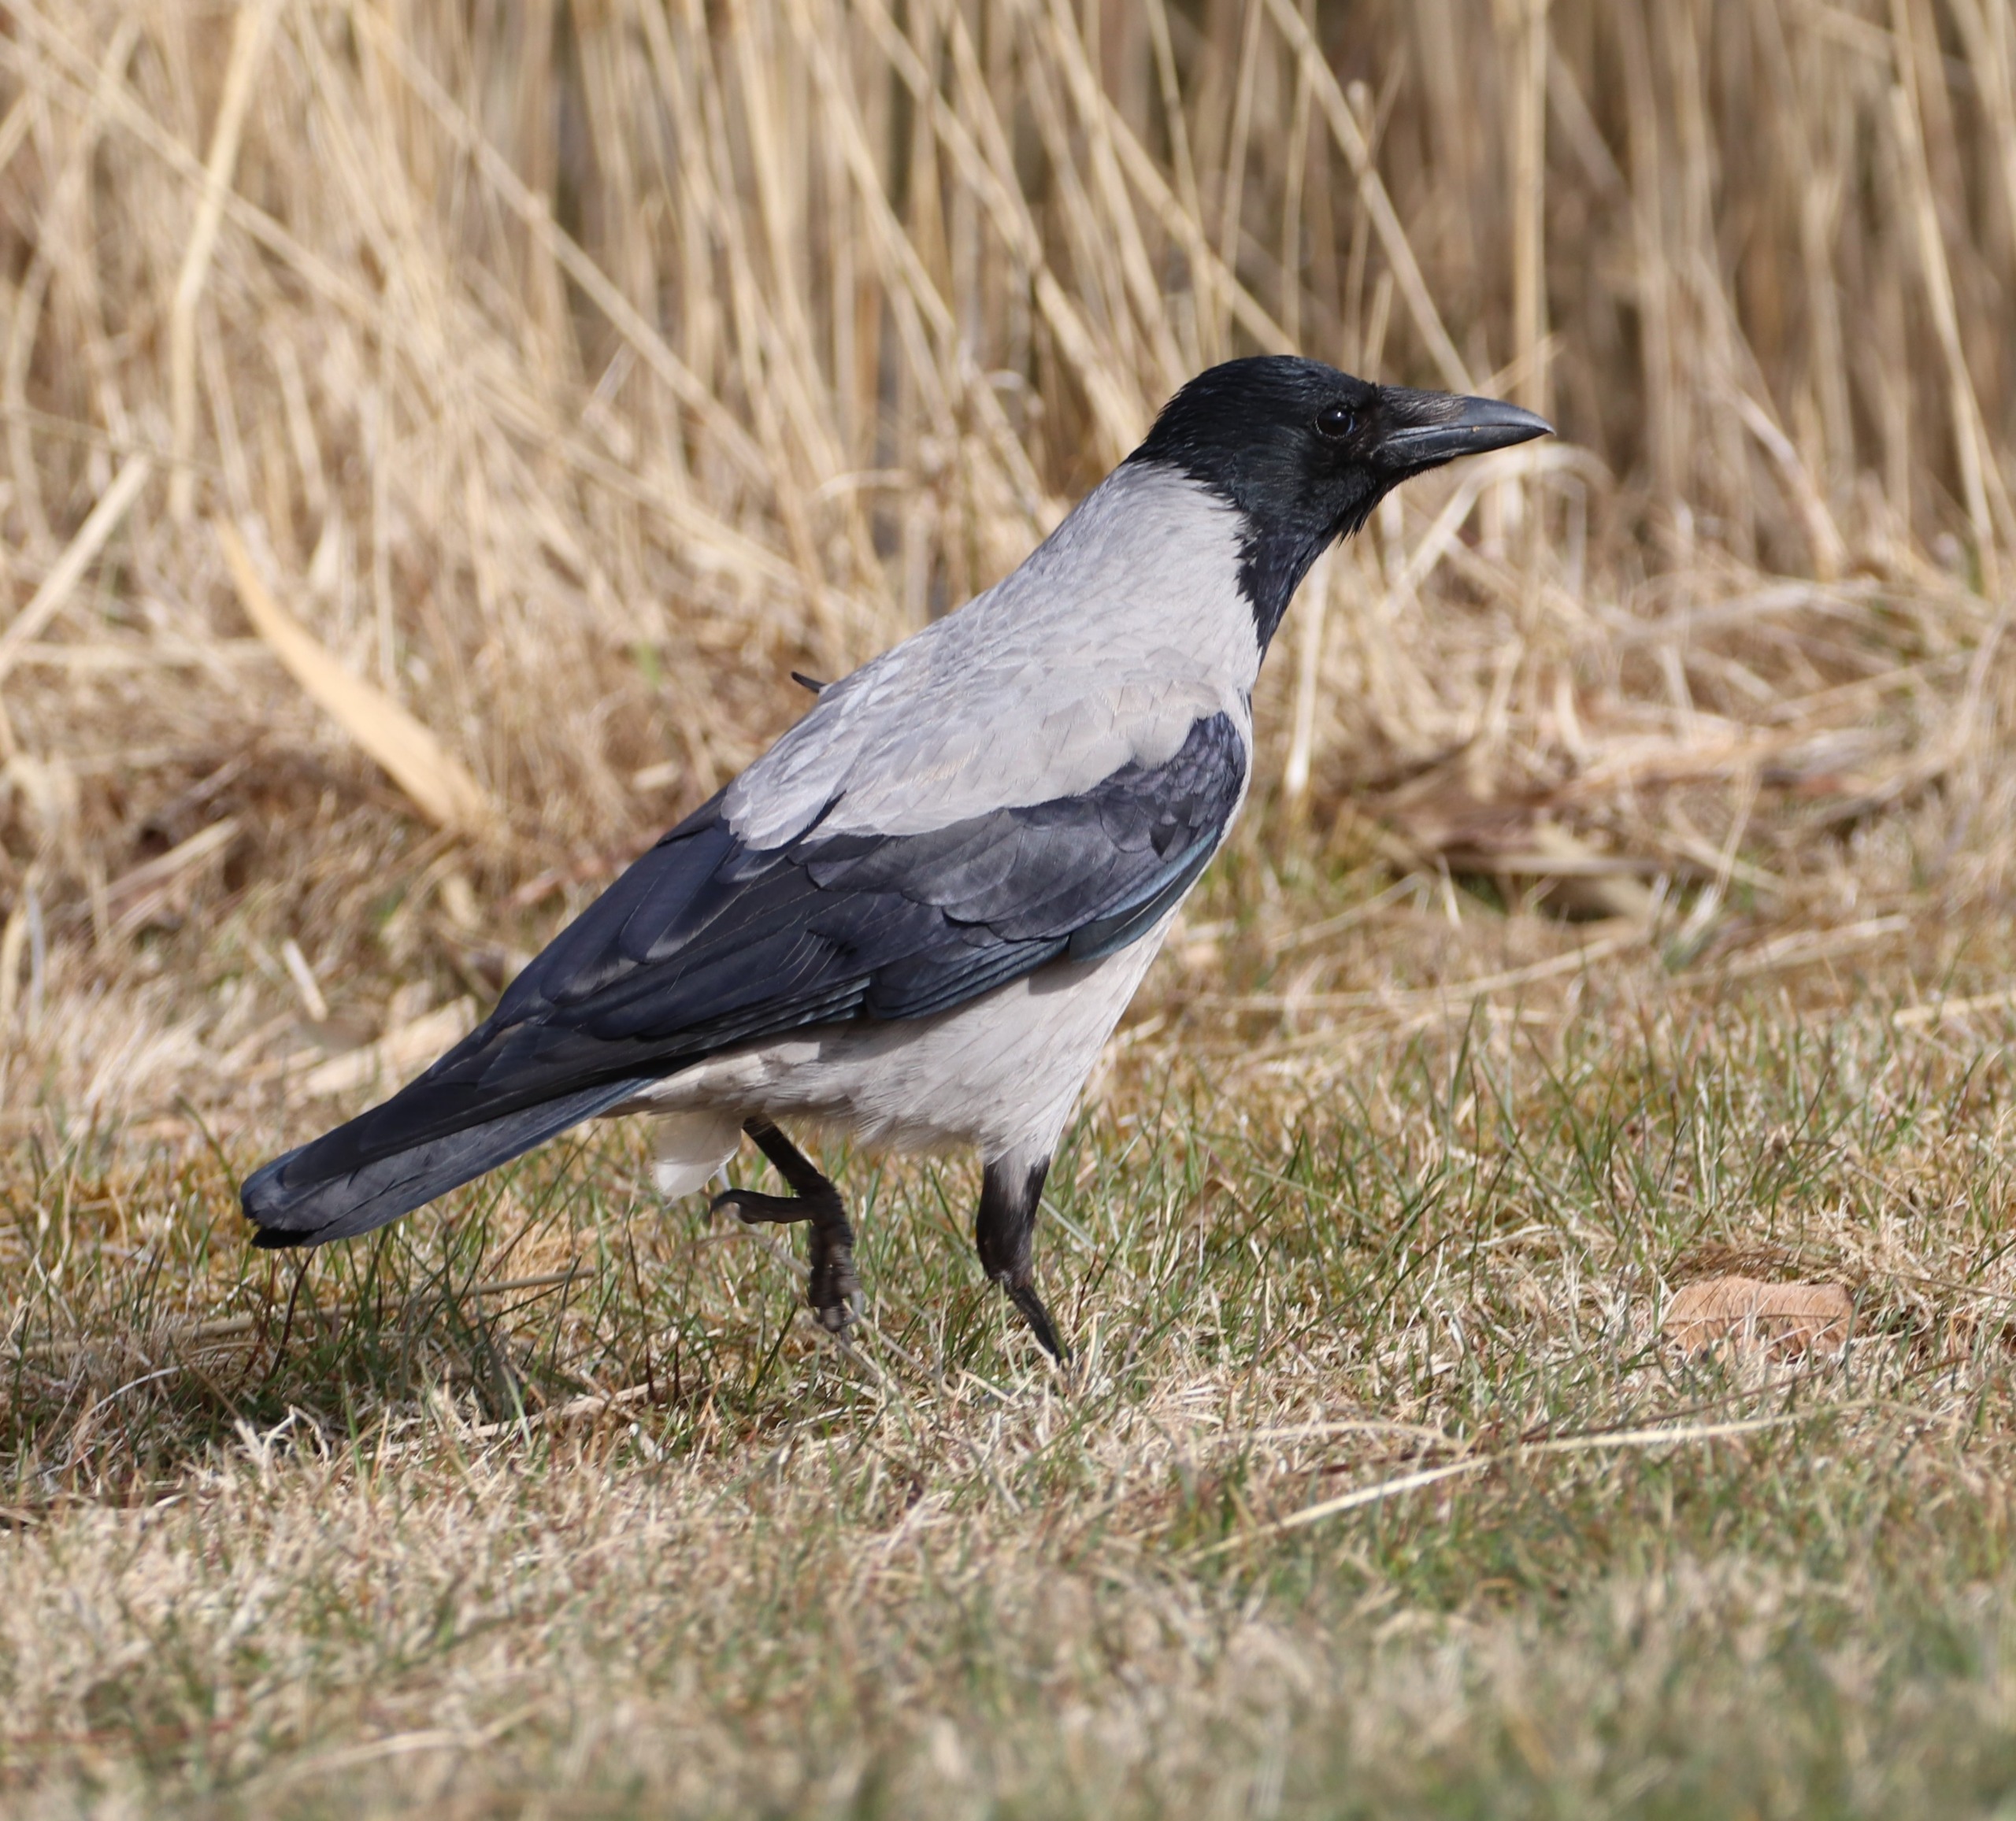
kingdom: Animalia
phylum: Chordata
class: Aves
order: Passeriformes
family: Corvidae
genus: Corvus
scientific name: Corvus cornix
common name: Gråkrage
